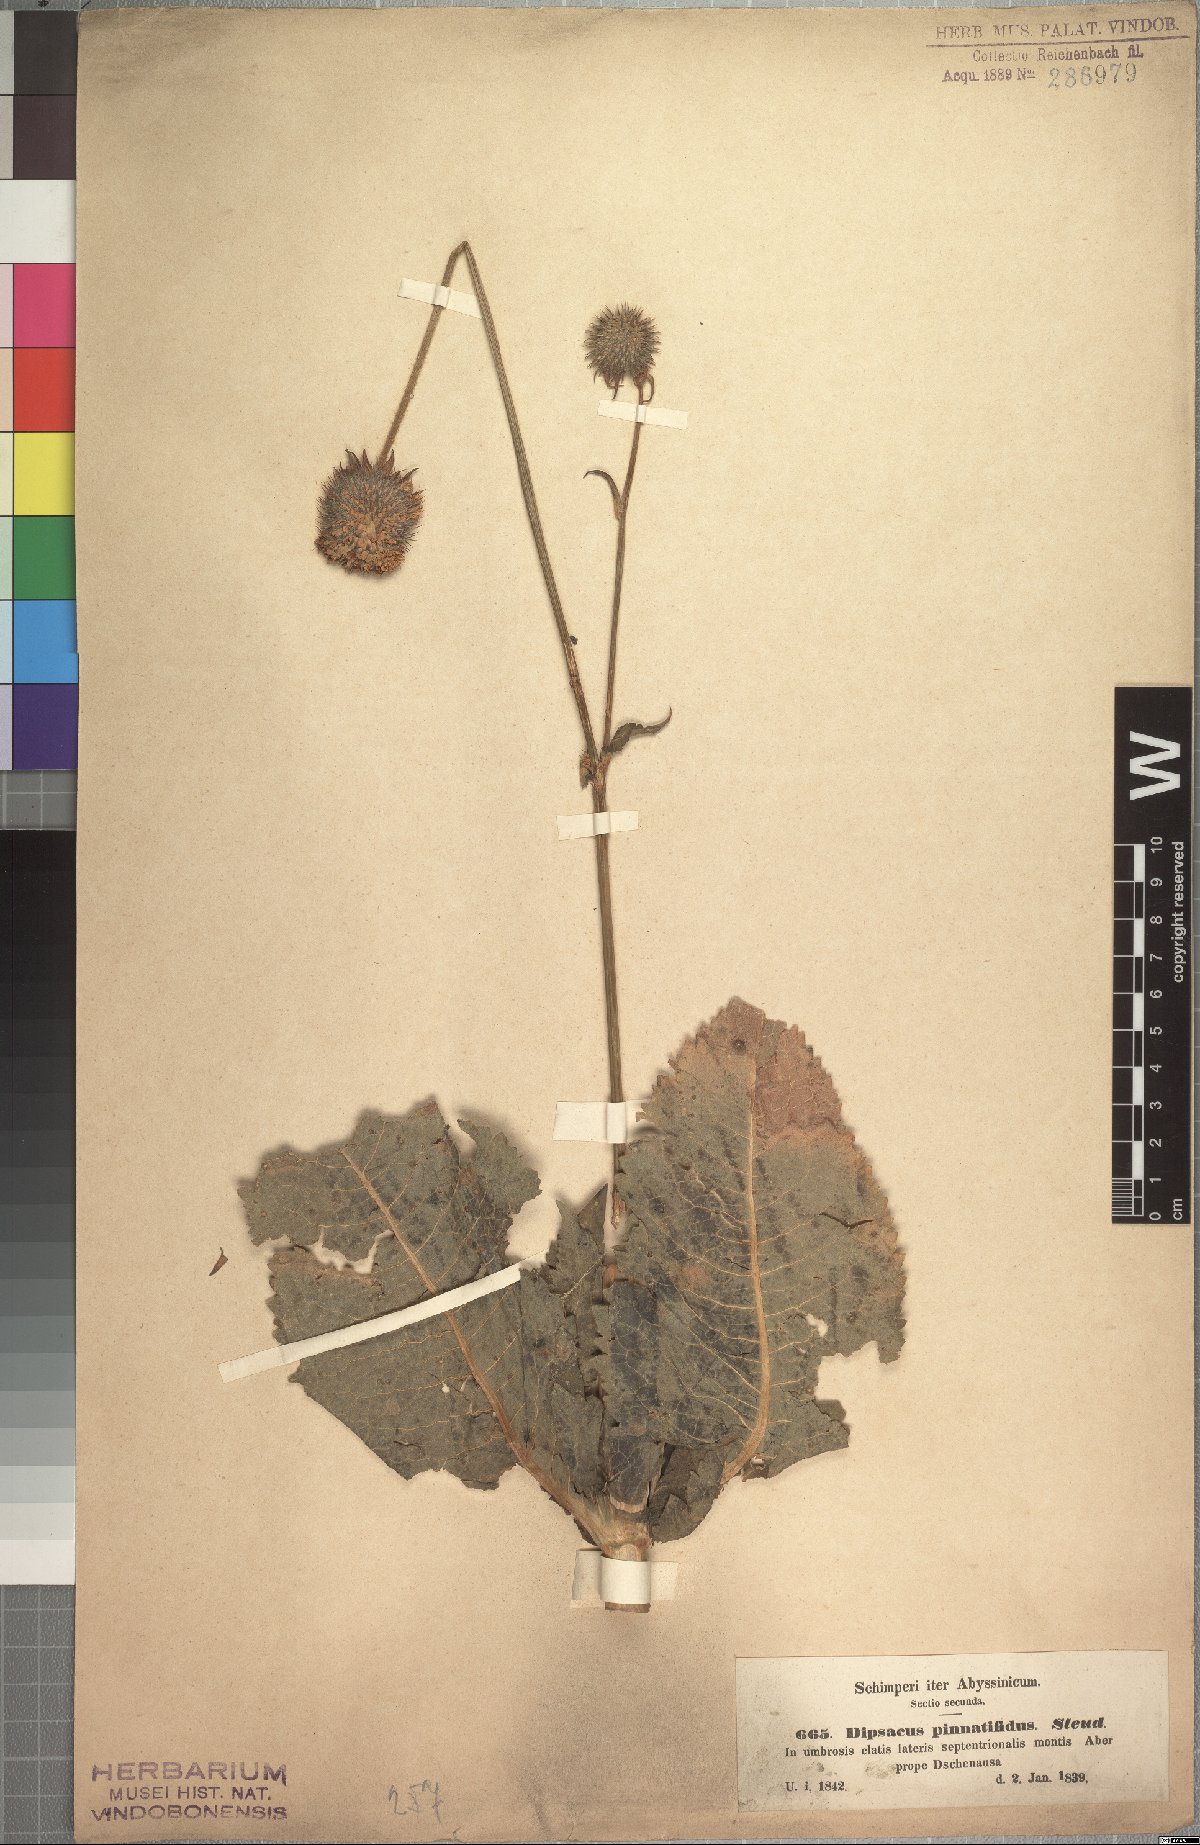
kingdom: Plantae
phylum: Tracheophyta
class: Magnoliopsida
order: Dipsacales
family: Caprifoliaceae
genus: Dipsacus
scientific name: Dipsacus pinnatifidus
